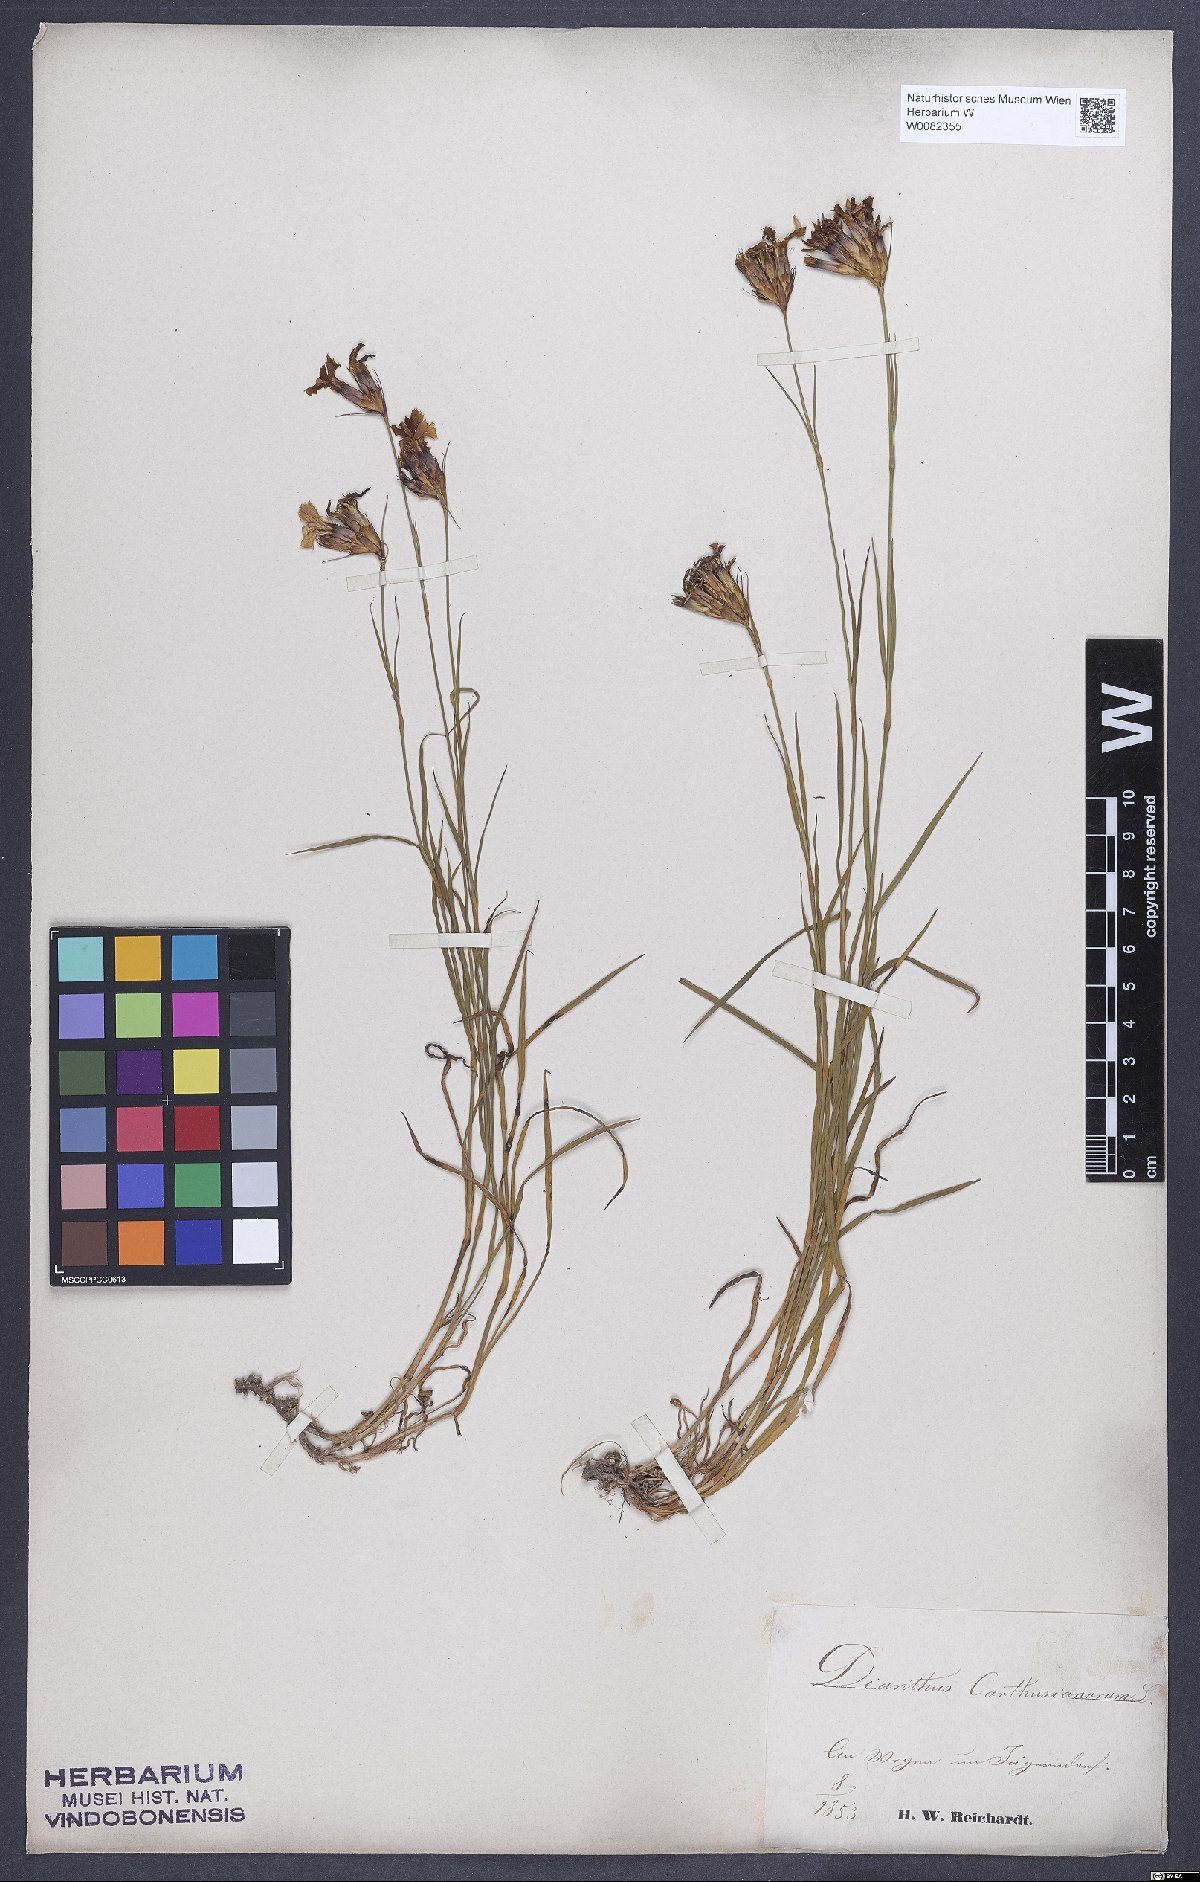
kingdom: Plantae
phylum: Tracheophyta
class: Magnoliopsida
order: Caryophyllales
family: Caryophyllaceae
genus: Dianthus
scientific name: Dianthus carthusianorum
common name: Carthusian pink
